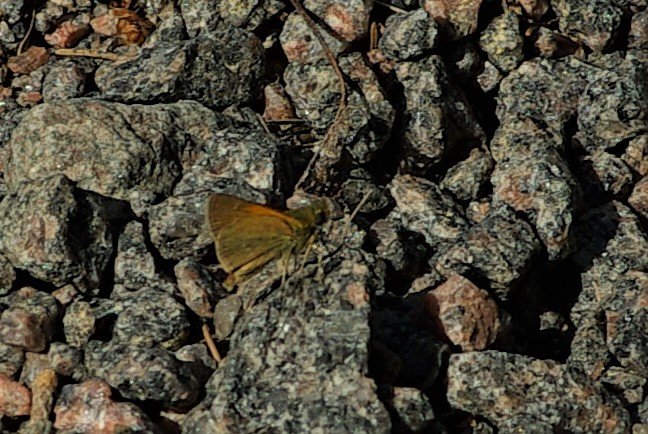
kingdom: Animalia
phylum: Arthropoda
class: Insecta
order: Lepidoptera
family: Hesperiidae
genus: Polites
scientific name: Polites themistocles
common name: Tawny-edged Skipper
